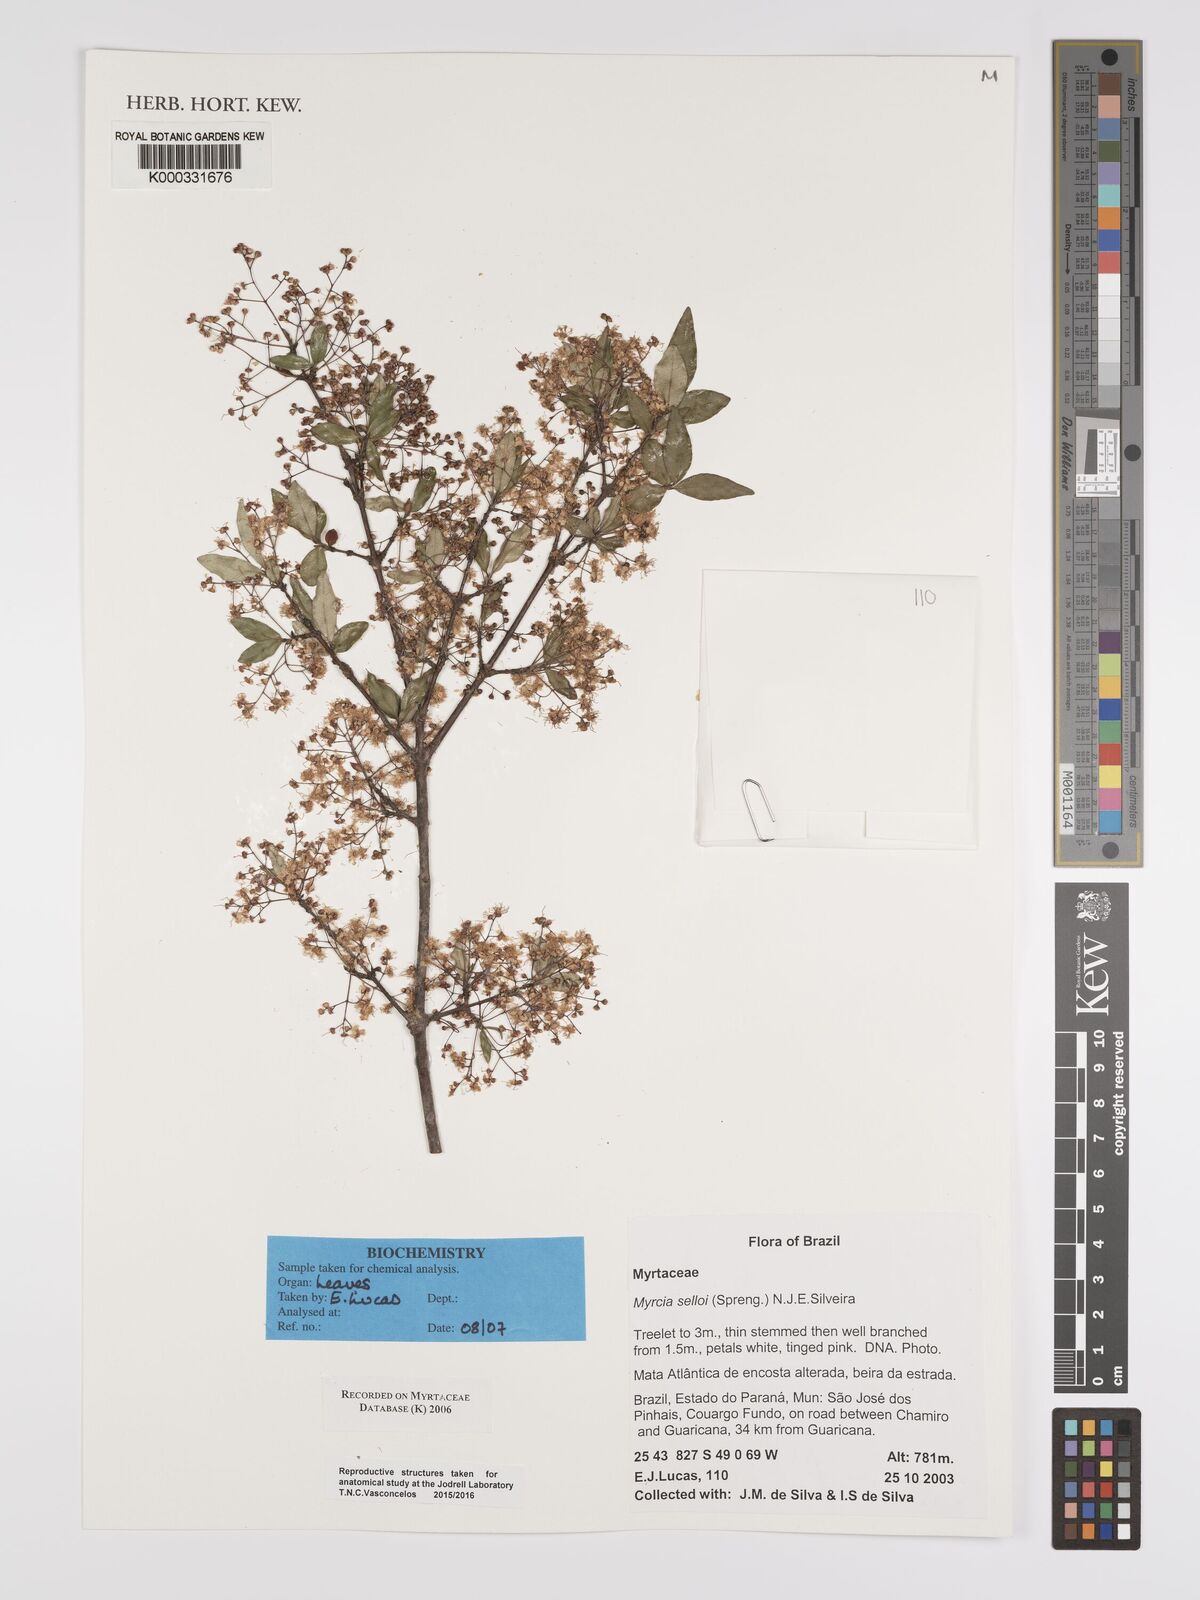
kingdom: Plantae
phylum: Tracheophyta
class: Magnoliopsida
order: Myrtales
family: Myrtaceae
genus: Myrcia
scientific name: Myrcia selloi
